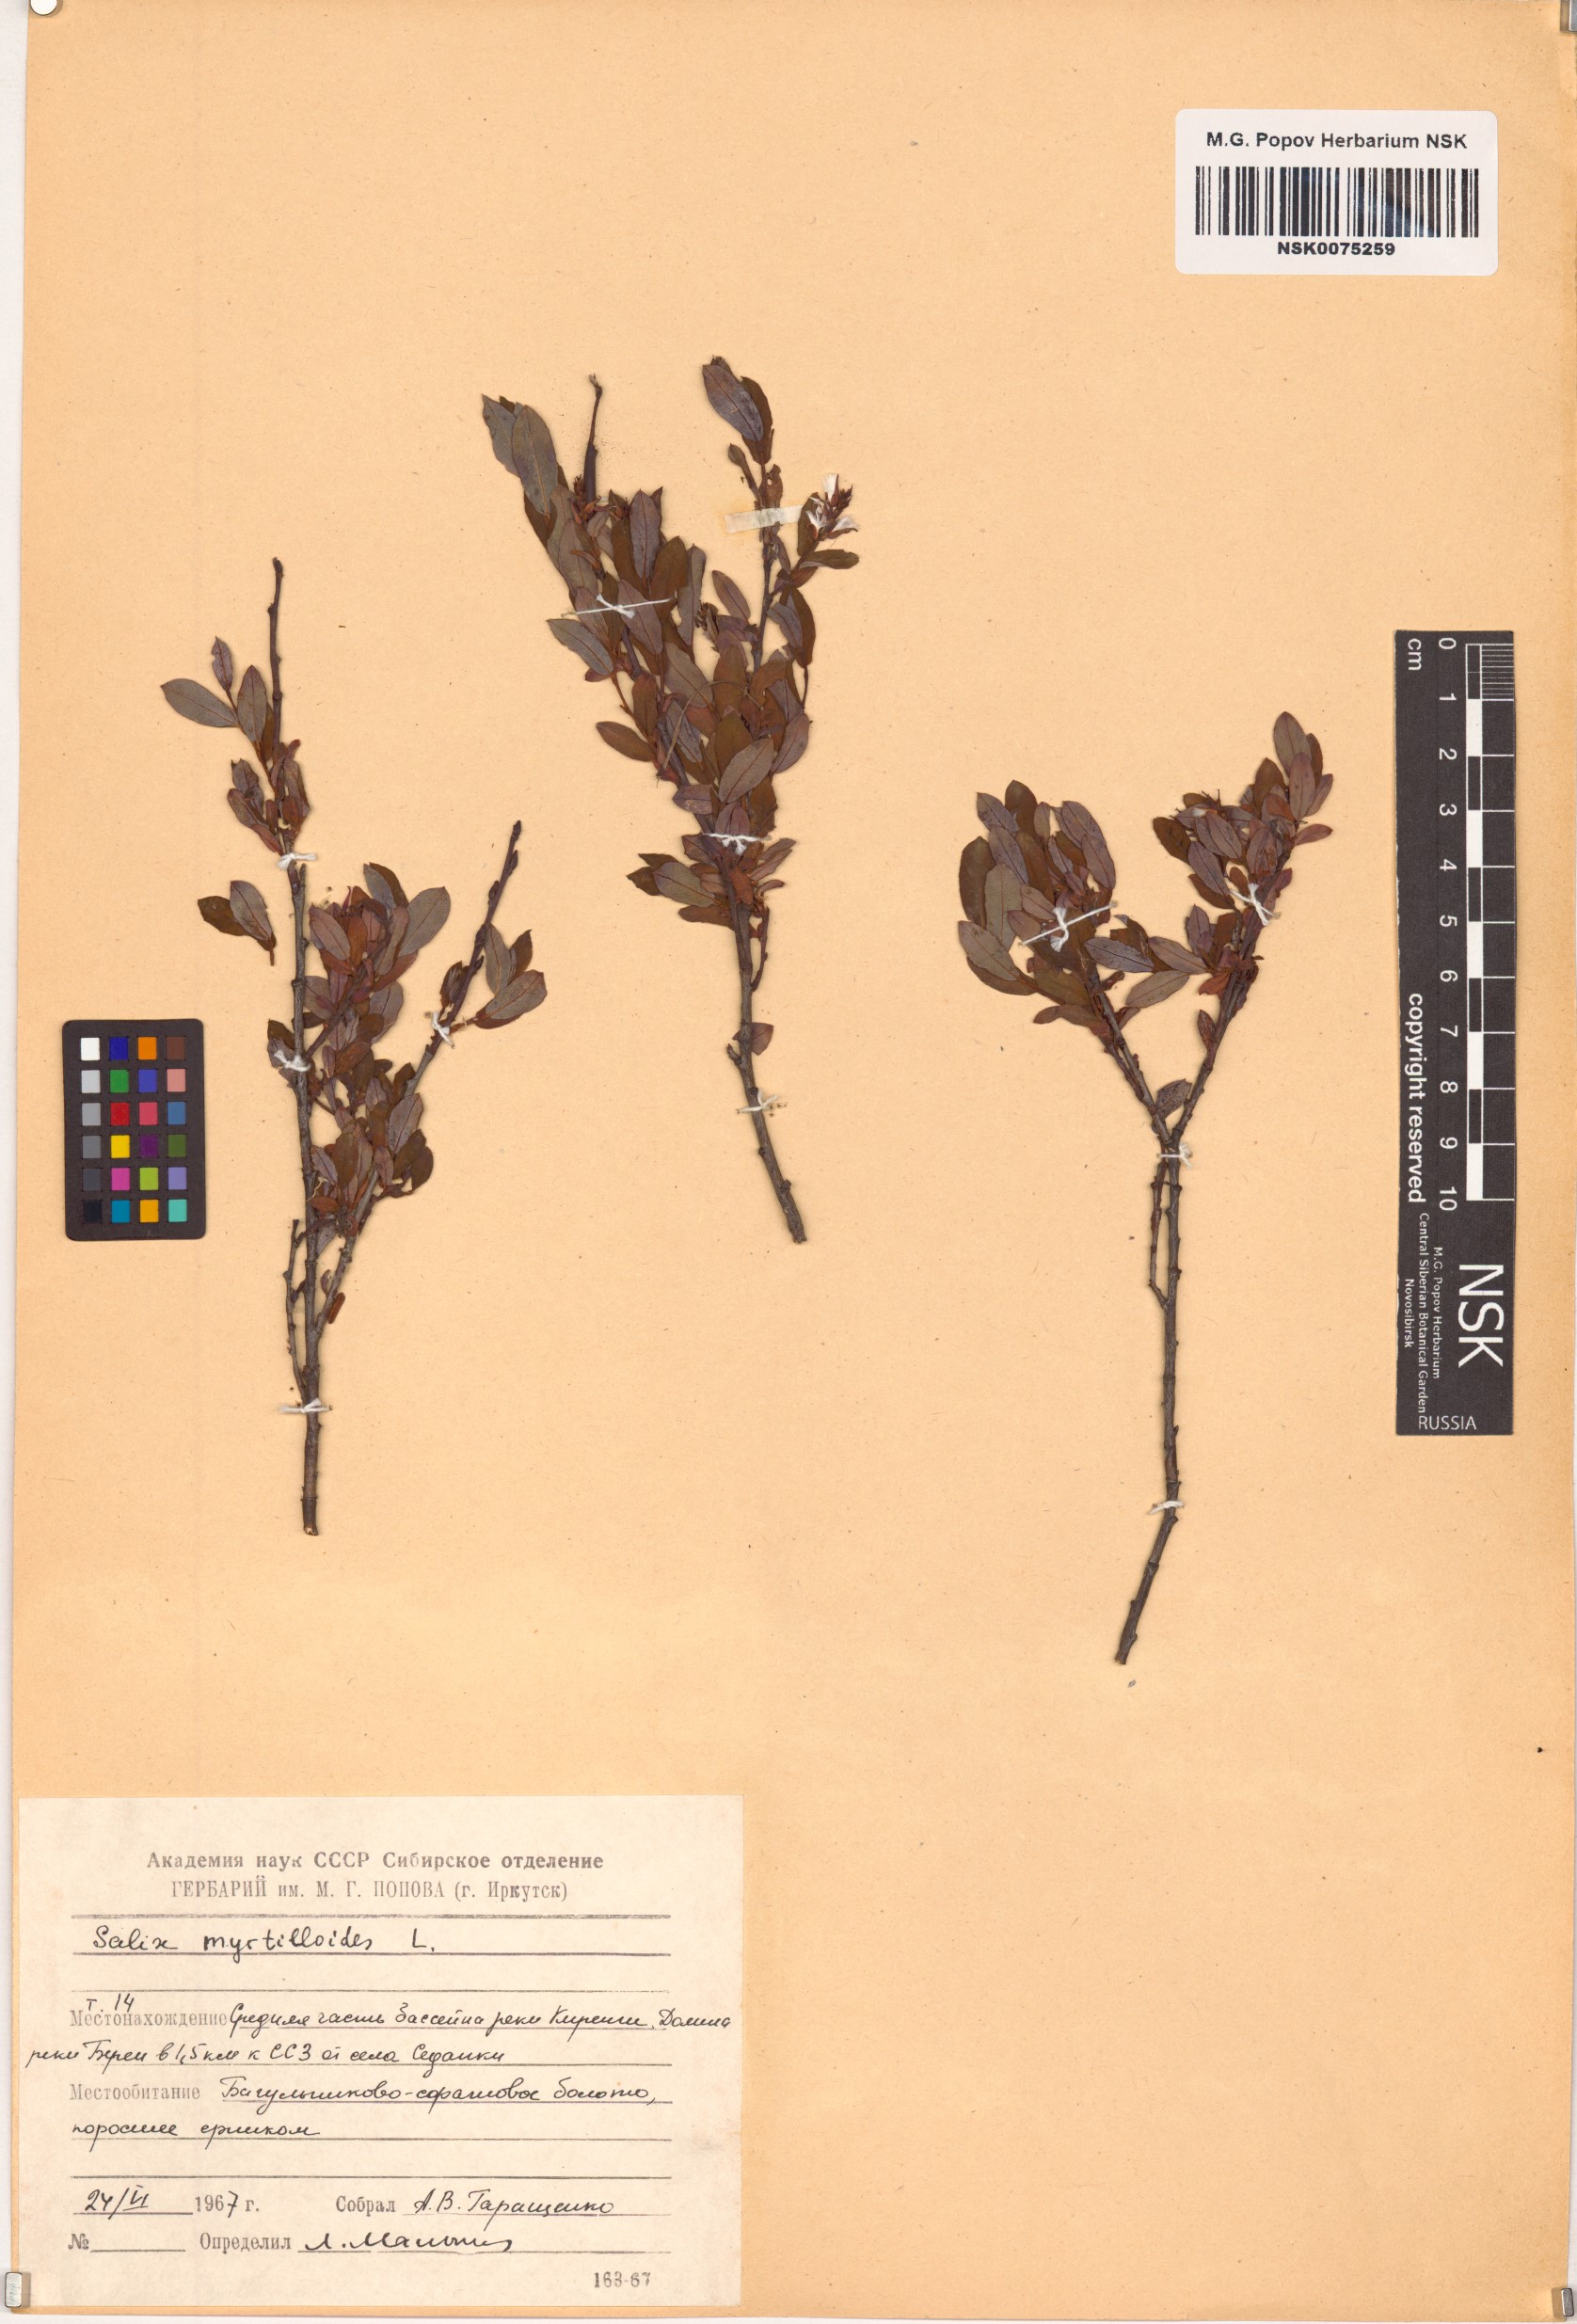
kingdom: Plantae
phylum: Tracheophyta
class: Magnoliopsida
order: Malpighiales
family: Salicaceae
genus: Salix
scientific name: Salix myrtilloides
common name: Myrtle-leaved willow
